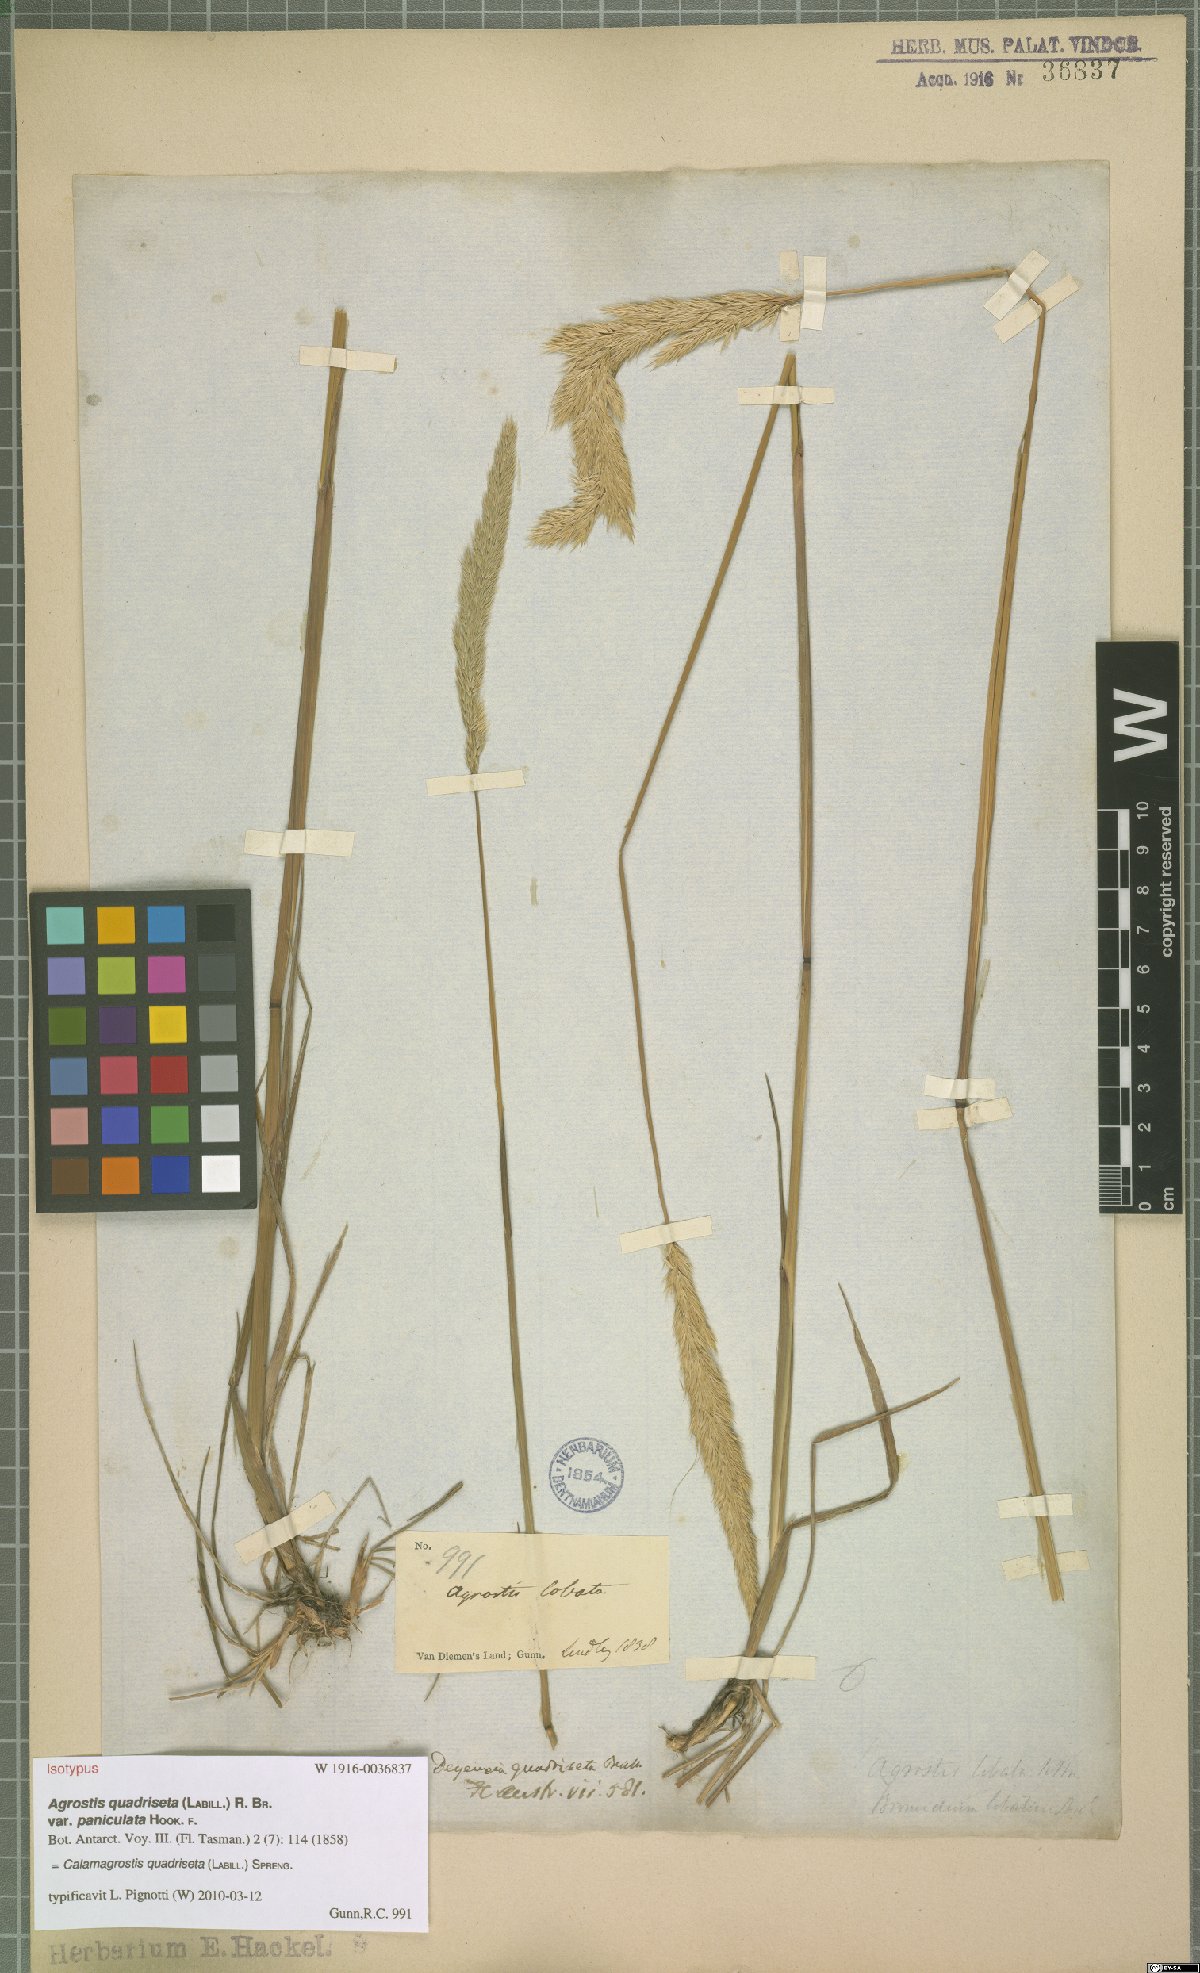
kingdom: Plantae
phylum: Tracheophyta
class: Liliopsida
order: Poales
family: Poaceae
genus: Calamagrostis
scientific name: Calamagrostis quadriseta
